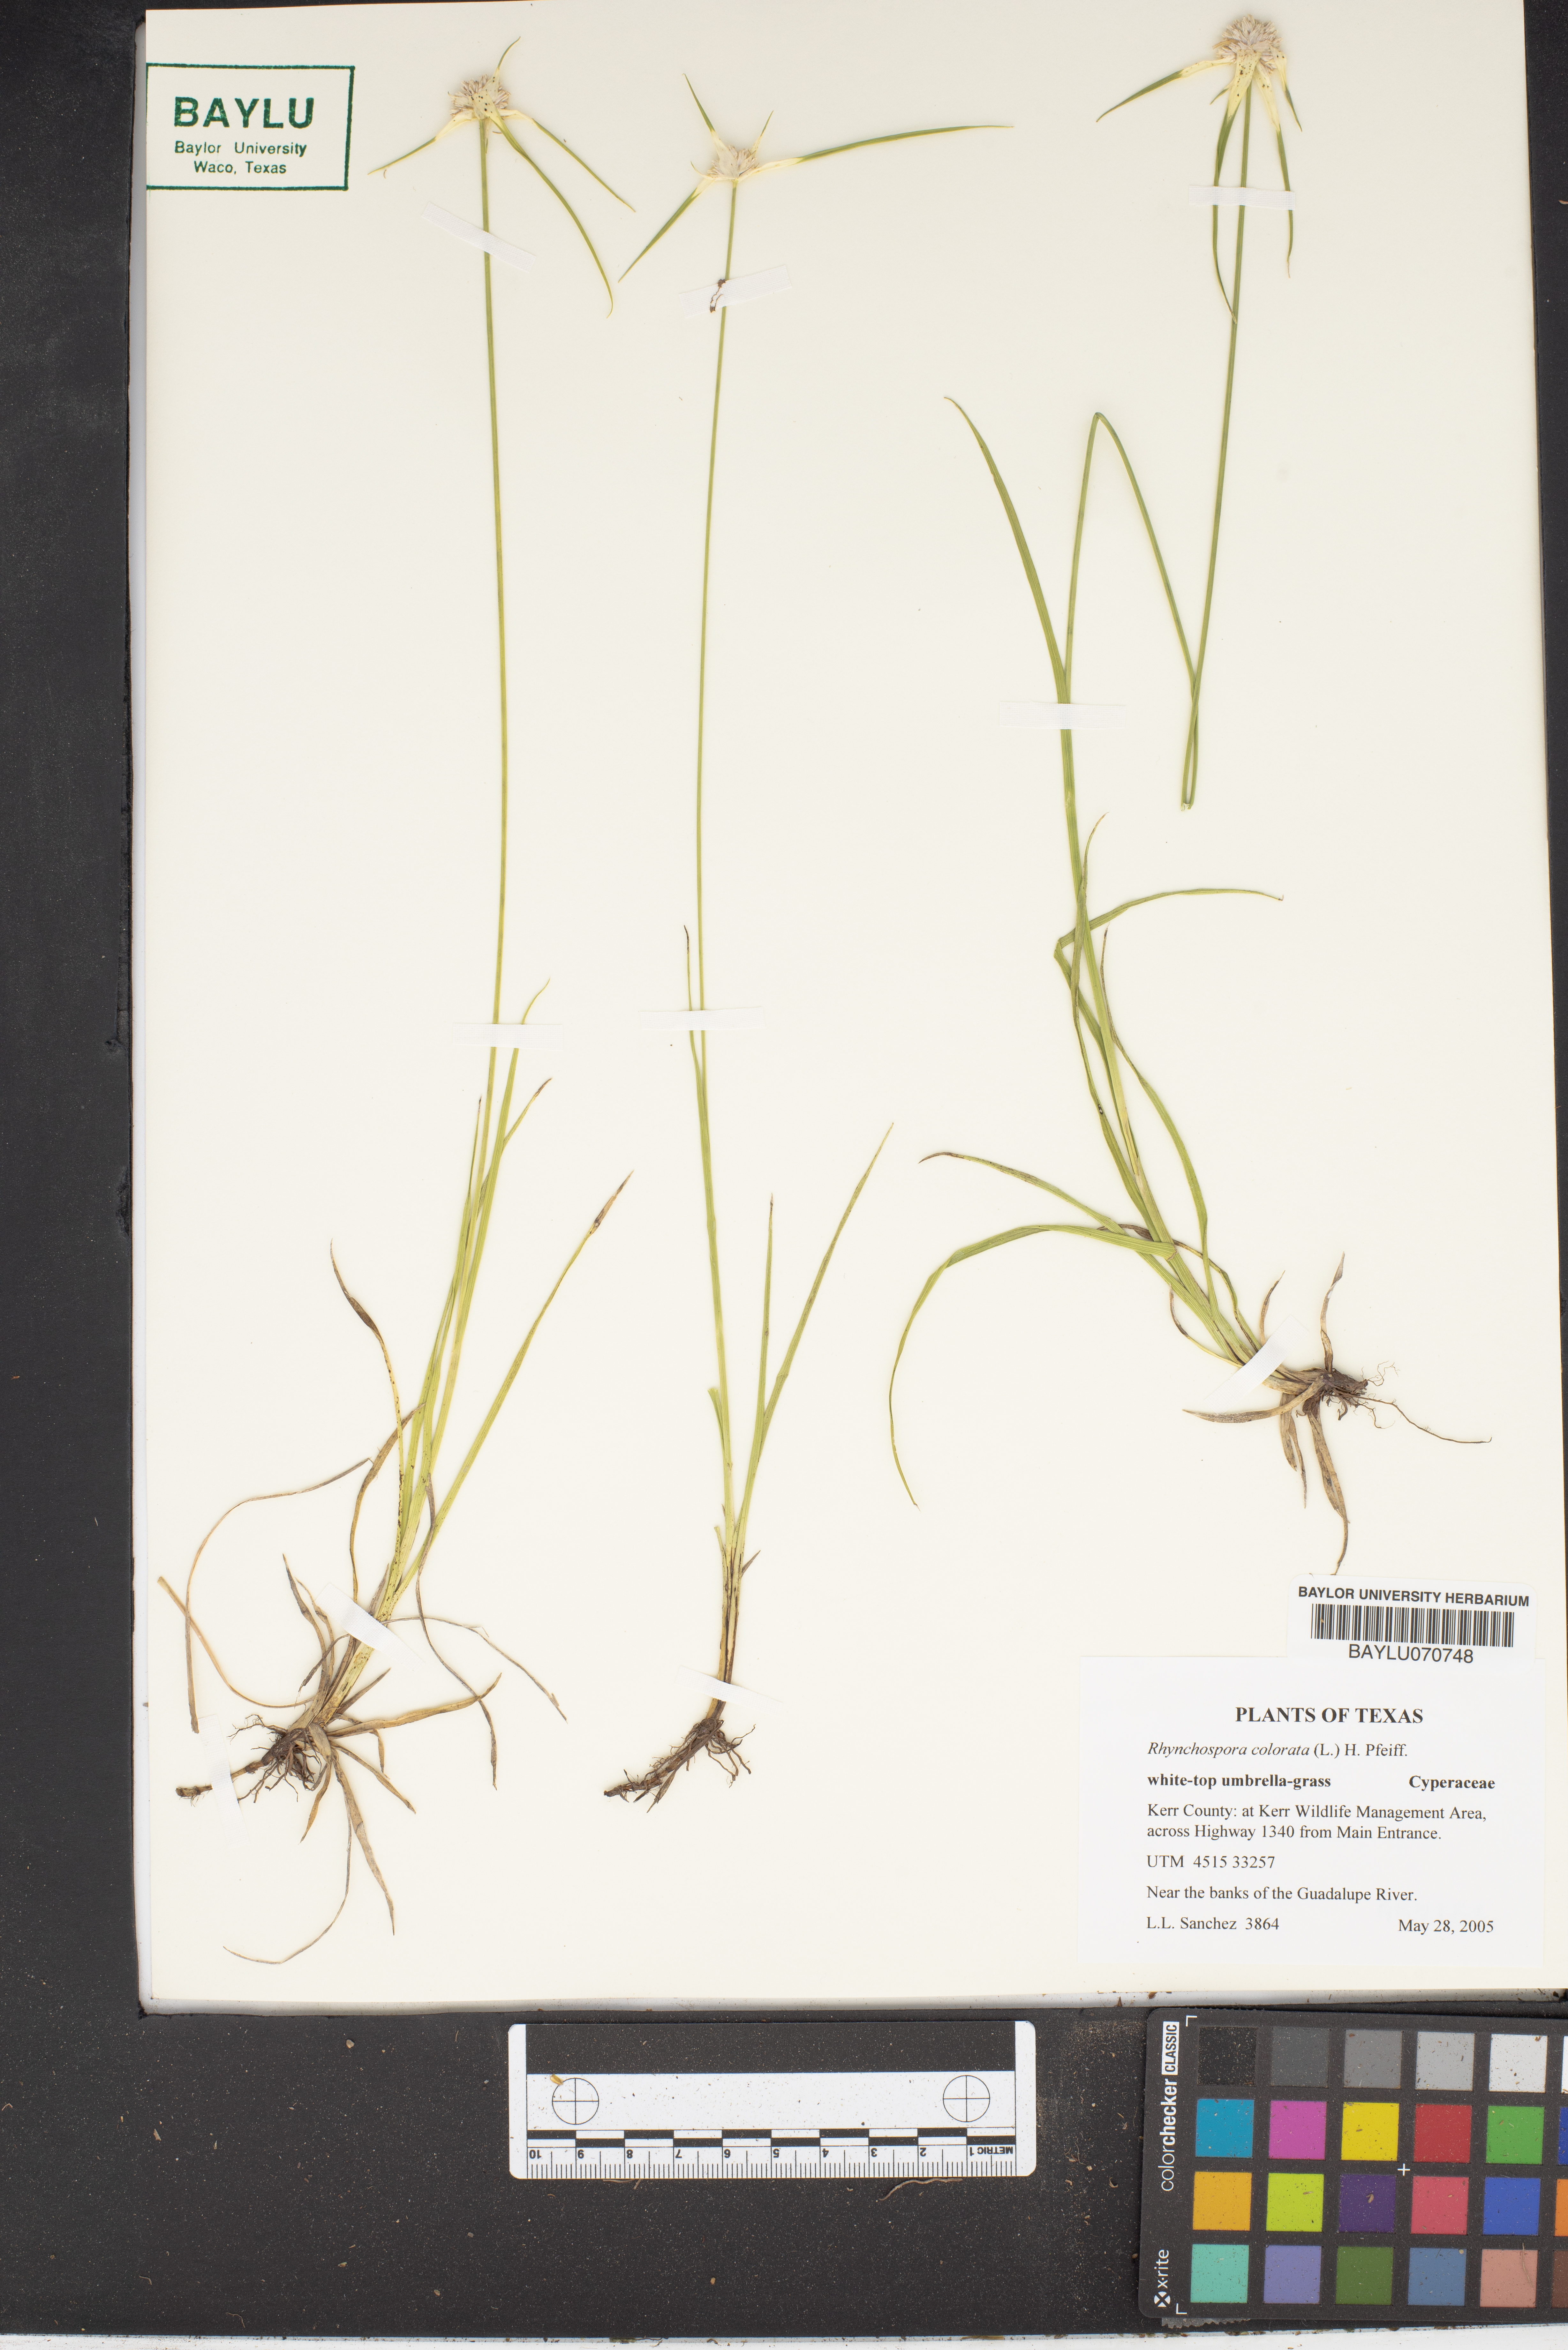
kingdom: Plantae
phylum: Tracheophyta
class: Liliopsida
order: Poales
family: Cyperaceae
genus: Rhynchospora
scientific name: Rhynchospora colorata
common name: Star sedge
